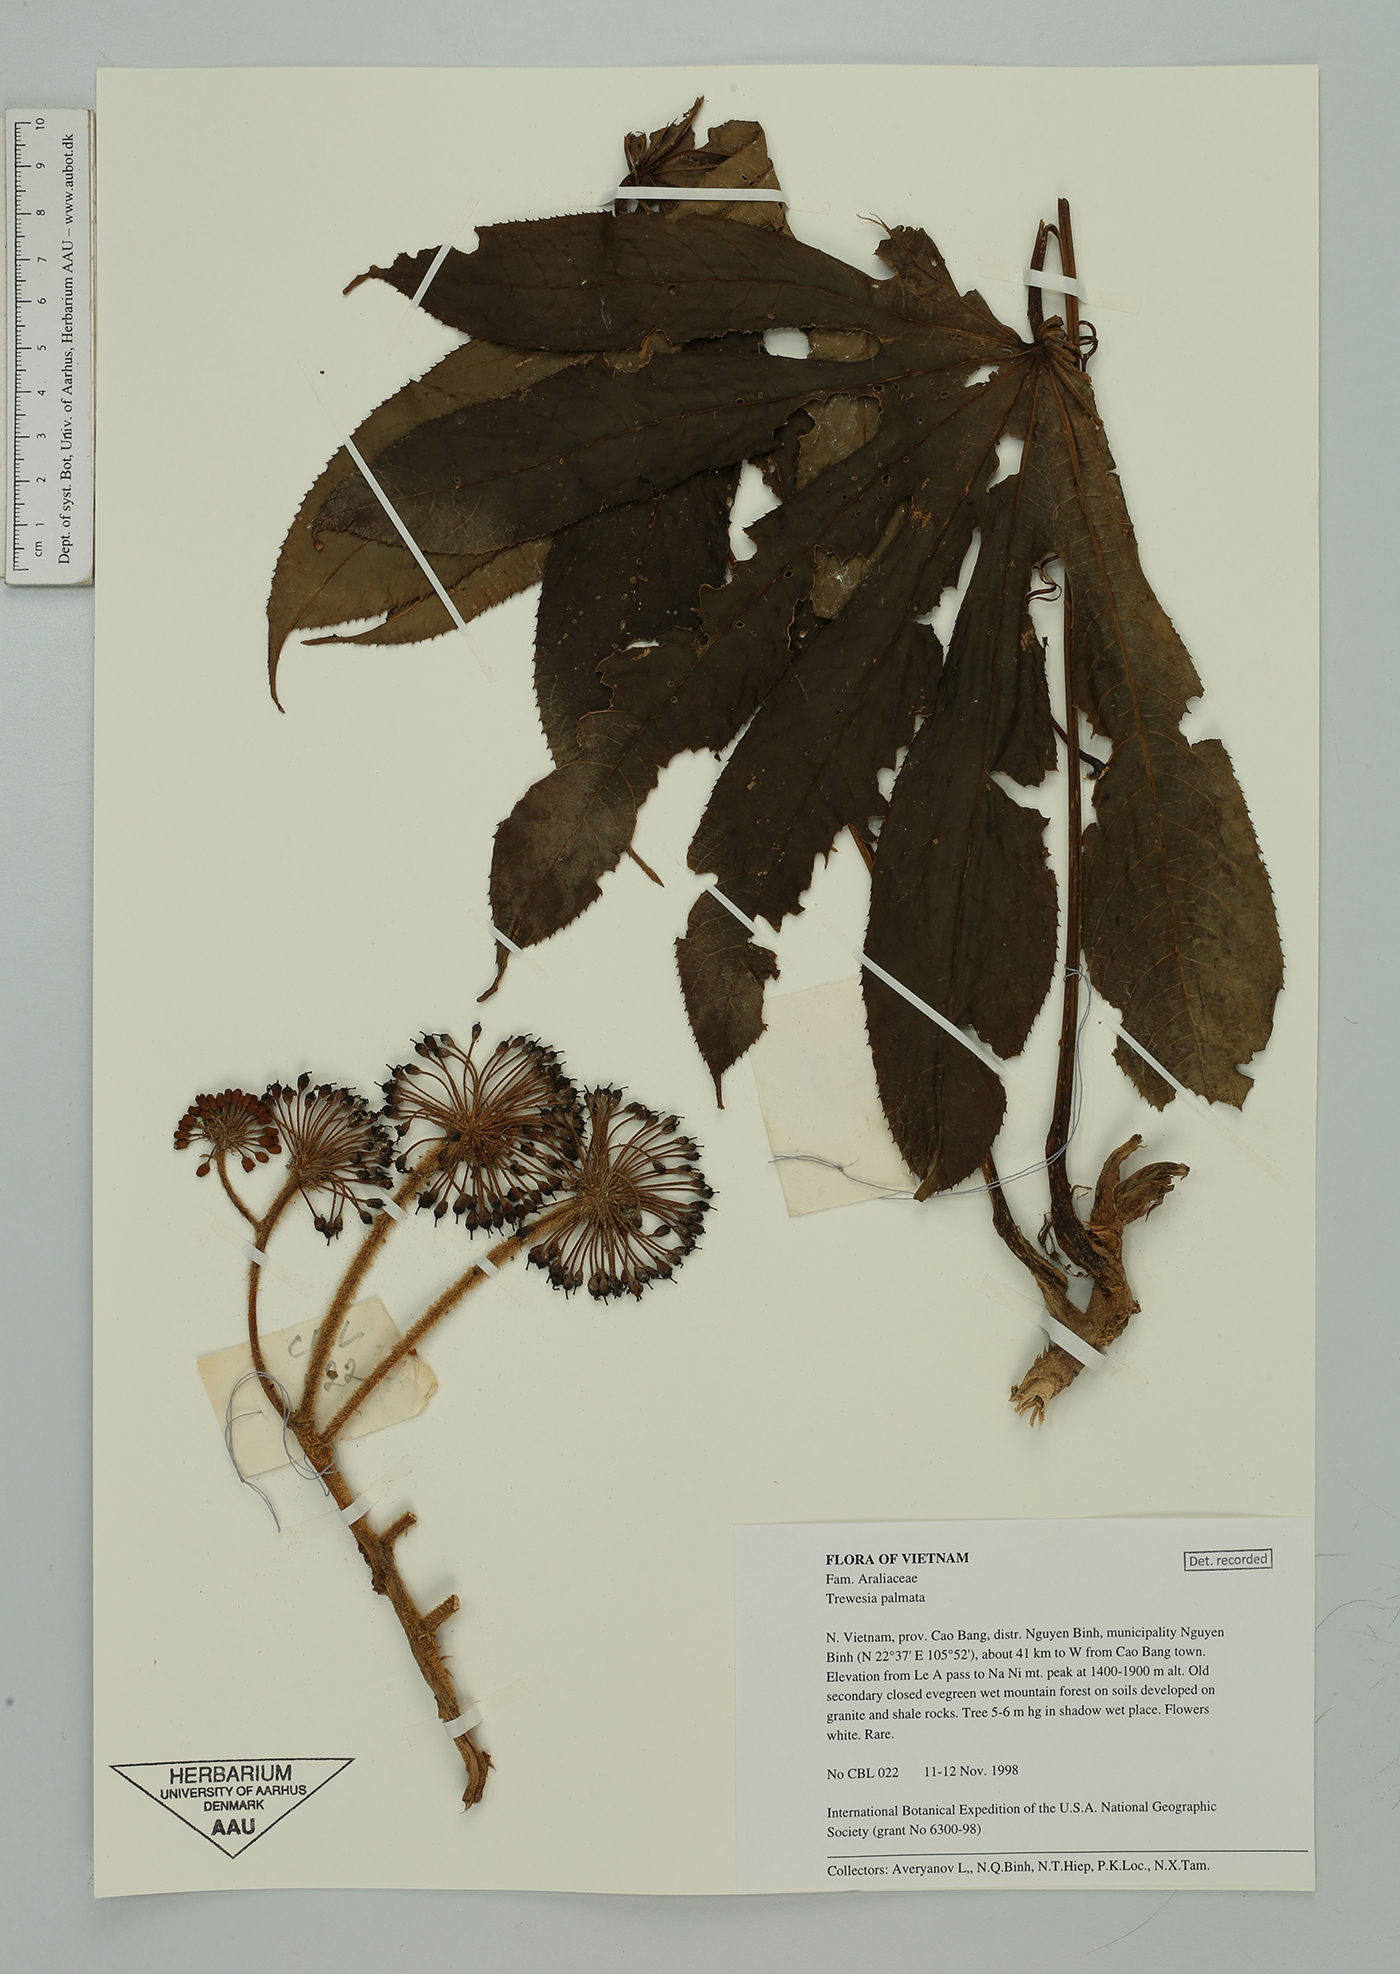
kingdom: Plantae
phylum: Tracheophyta
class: Magnoliopsida
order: Apiales
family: Araliaceae
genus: Trevesia
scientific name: Trevesia palmata
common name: Snowflakeplant
